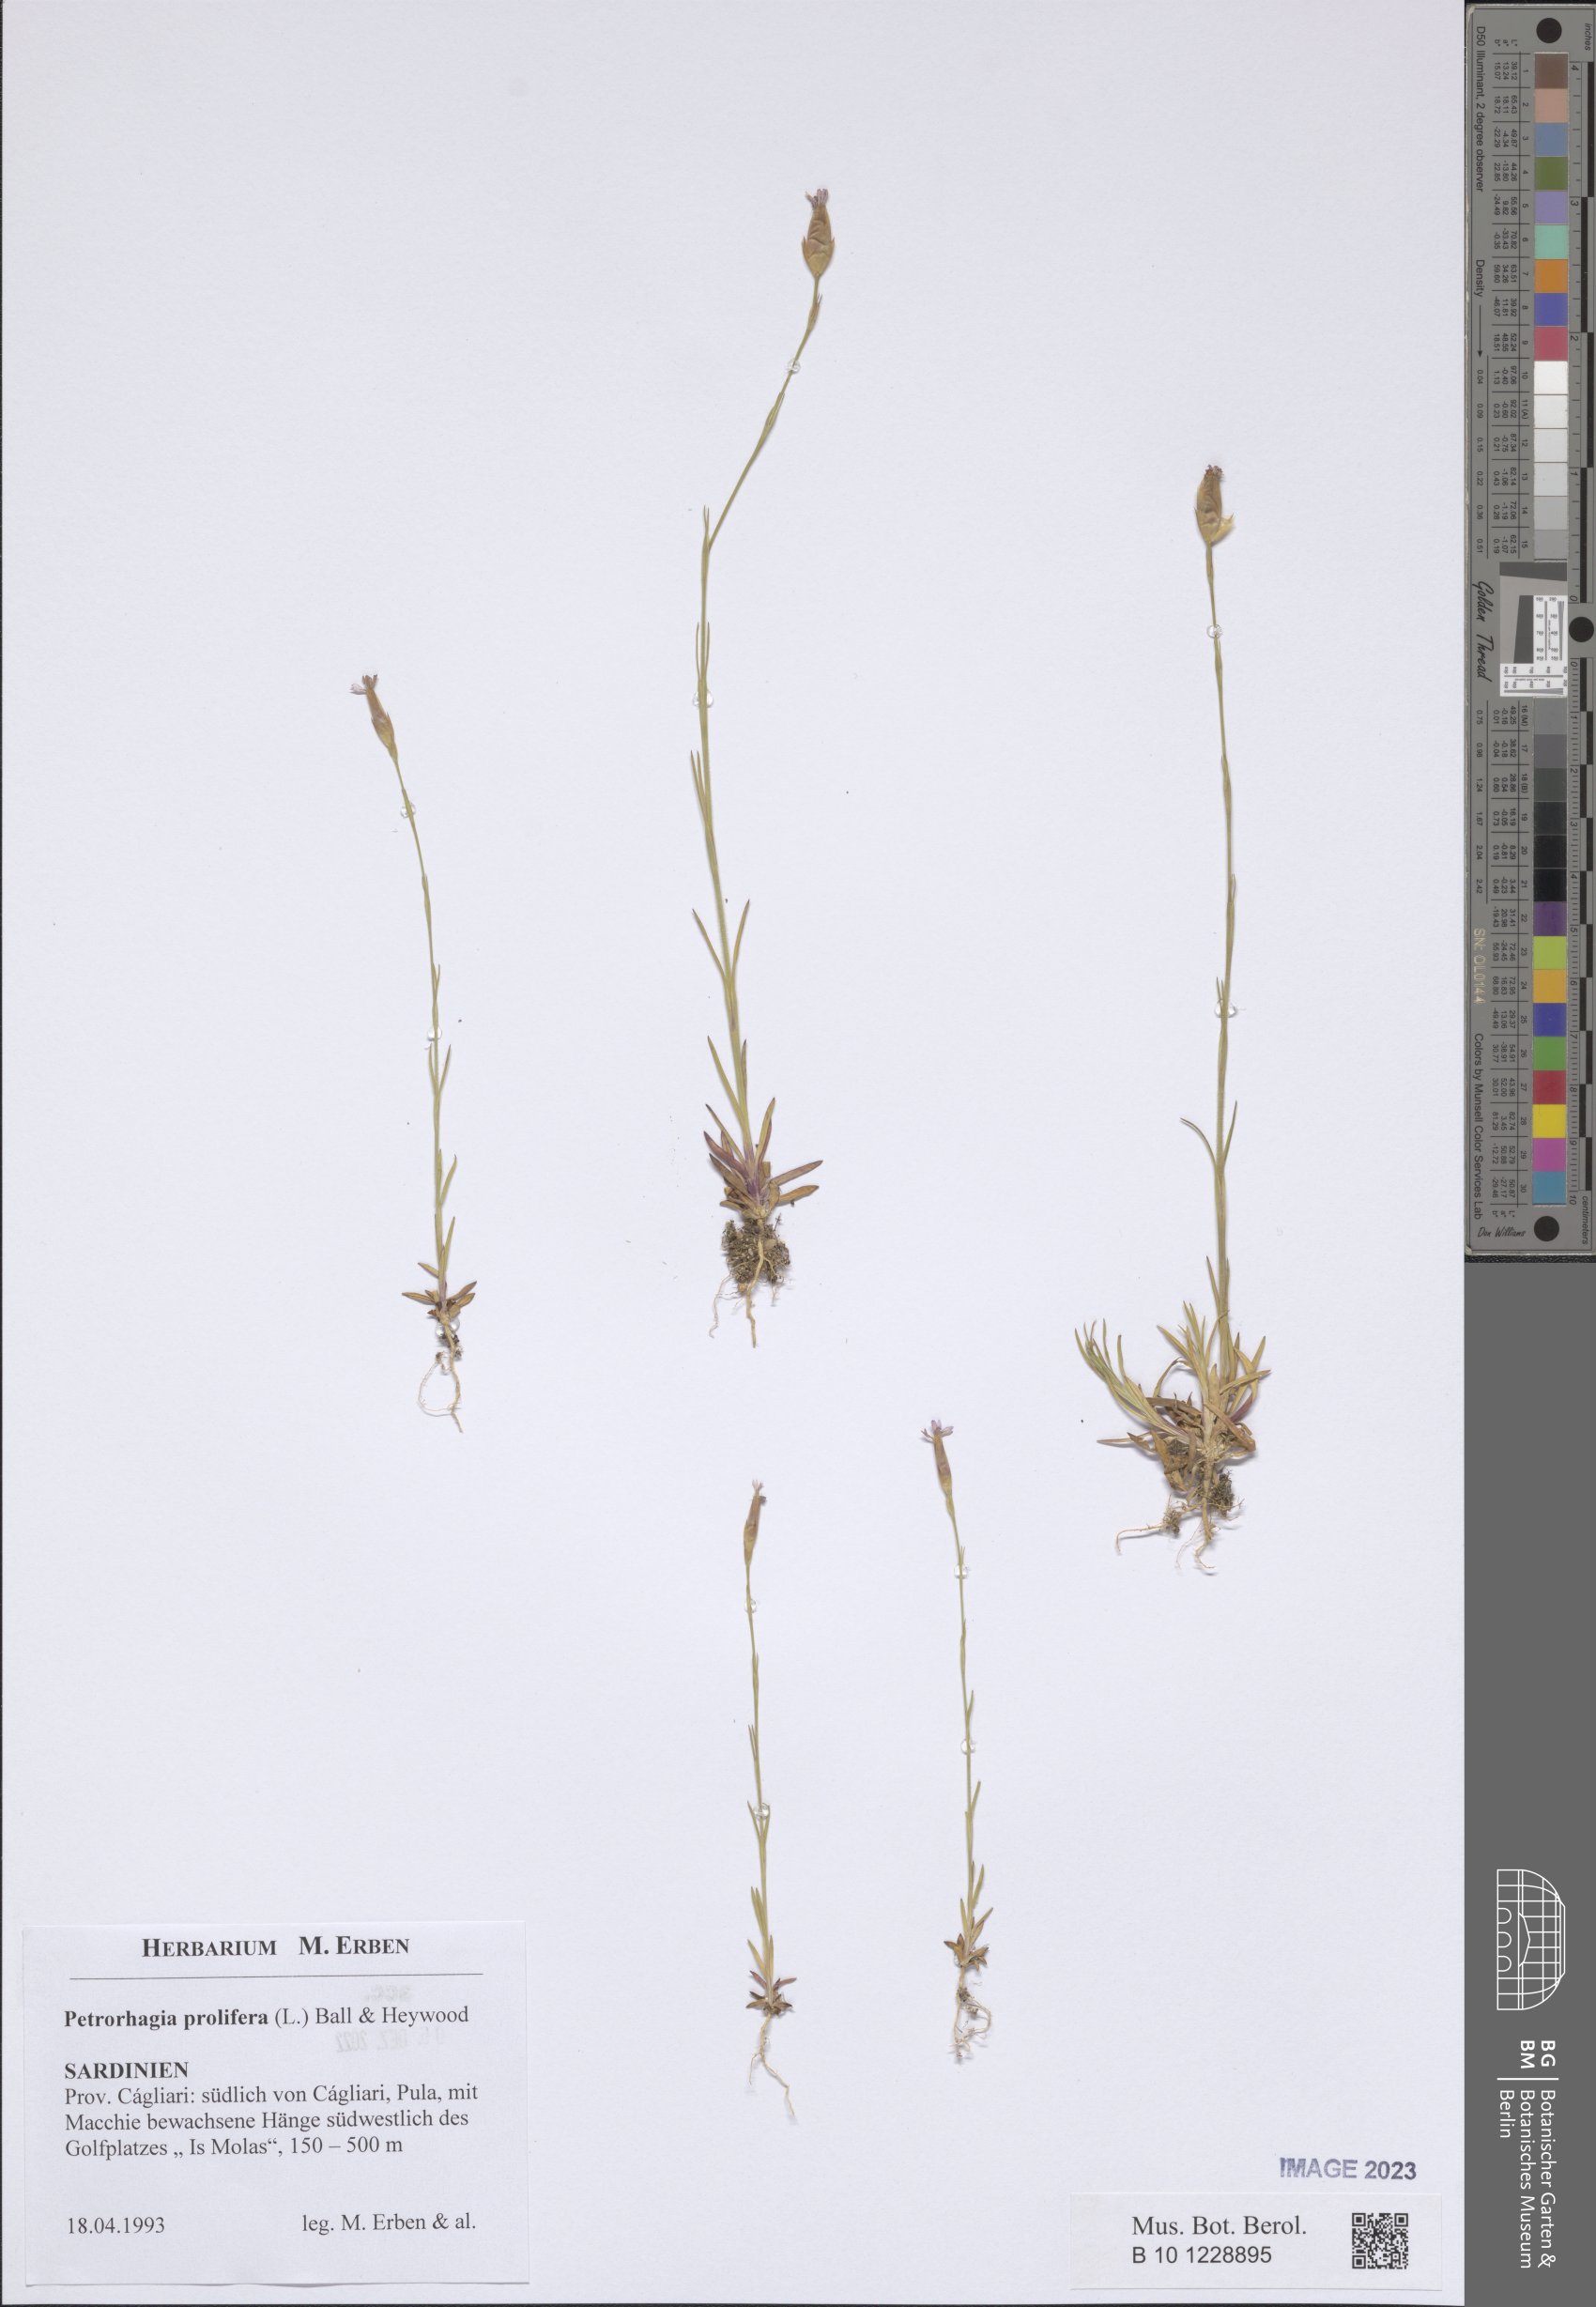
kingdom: Plantae
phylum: Tracheophyta
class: Magnoliopsida
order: Caryophyllales
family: Caryophyllaceae
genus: Petrorhagia
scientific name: Petrorhagia prolifera
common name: Proliferous pink
